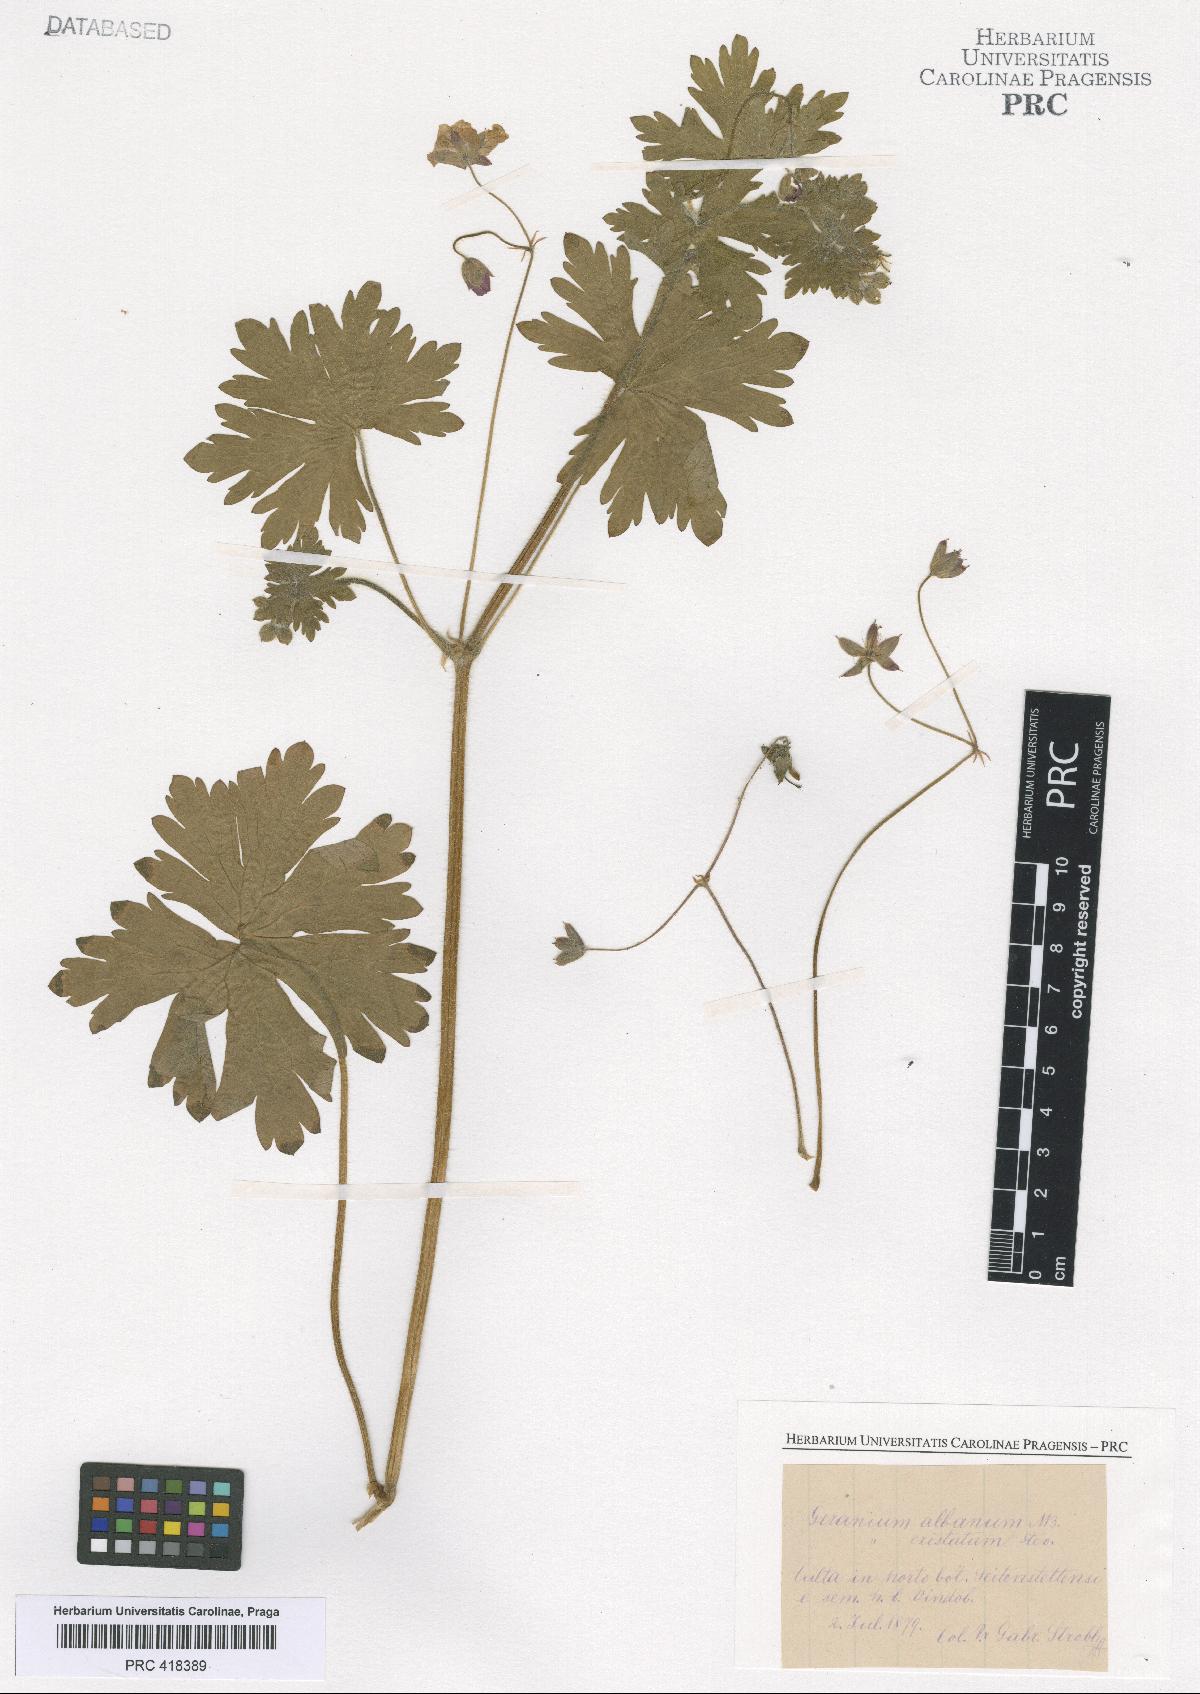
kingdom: Plantae
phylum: Tracheophyta
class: Magnoliopsida
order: Geraniales
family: Geraniaceae
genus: Geranium
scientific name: Geranium albanum
